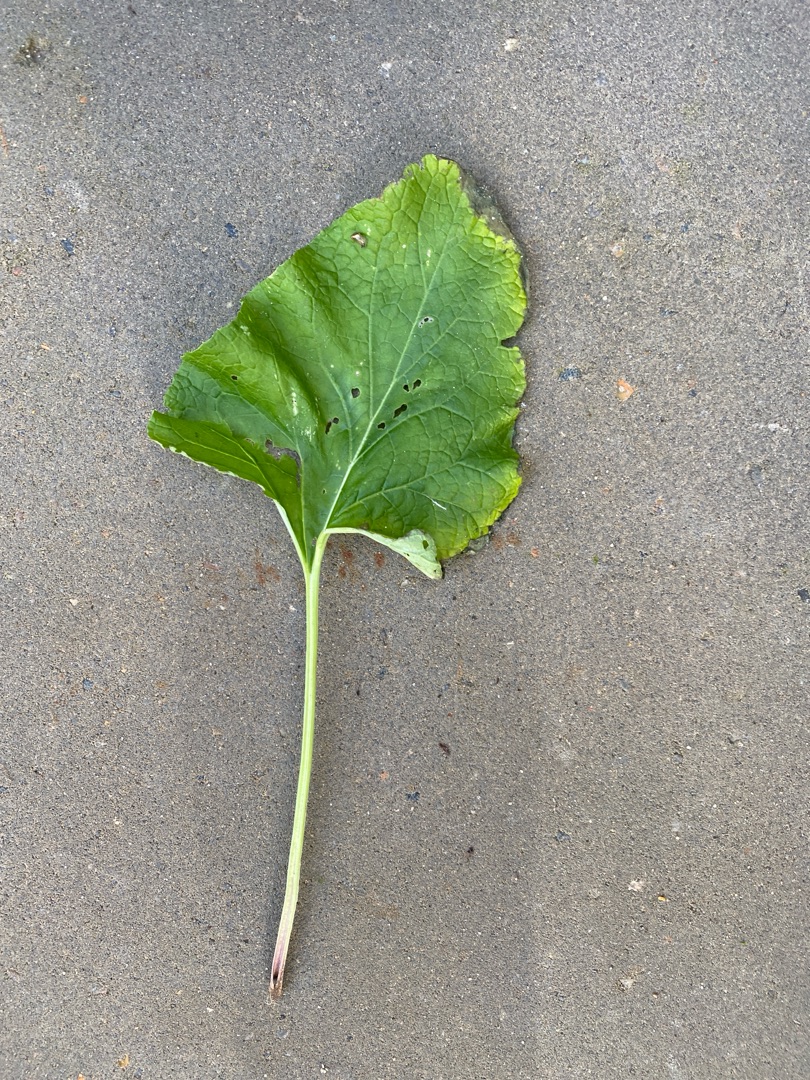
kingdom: Plantae
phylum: Tracheophyta
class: Magnoliopsida
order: Asterales
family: Asteraceae
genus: Arctium
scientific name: Arctium
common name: Burreslægten
